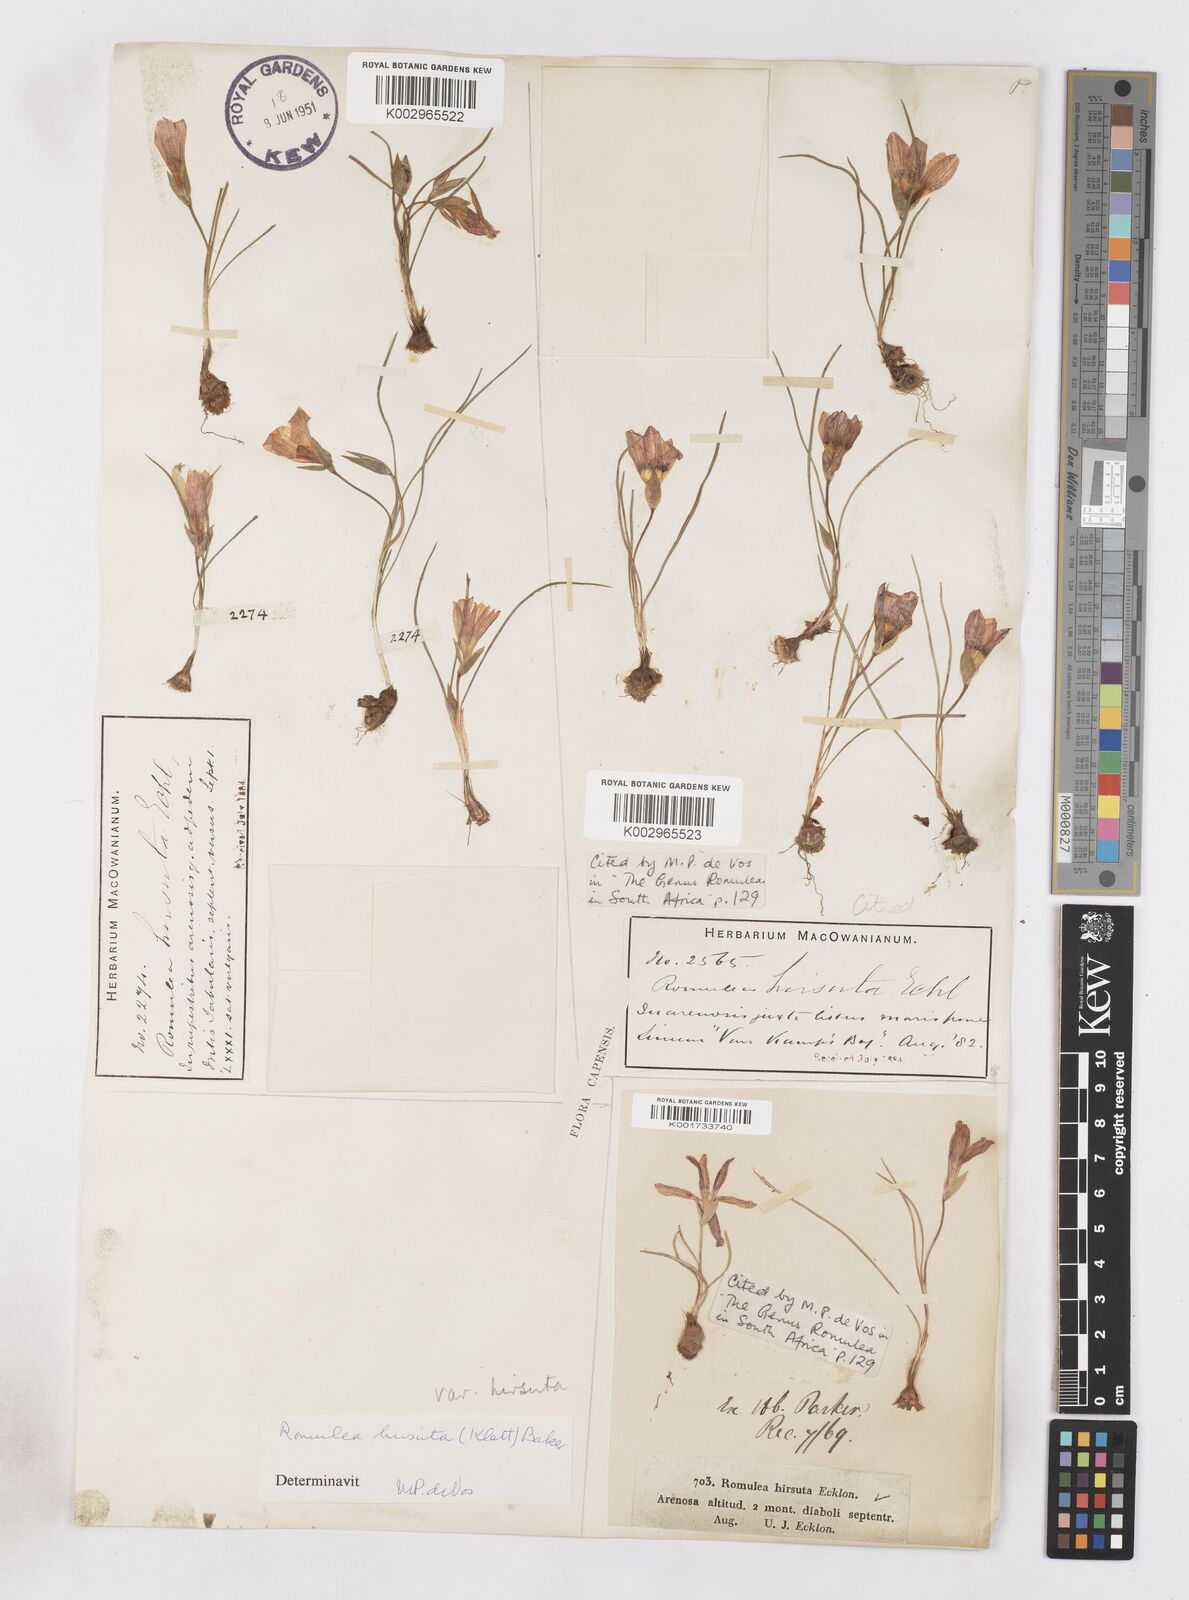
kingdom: Plantae
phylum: Tracheophyta
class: Liliopsida
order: Asparagales
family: Iridaceae
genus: Romulea
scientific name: Romulea hirsuta
